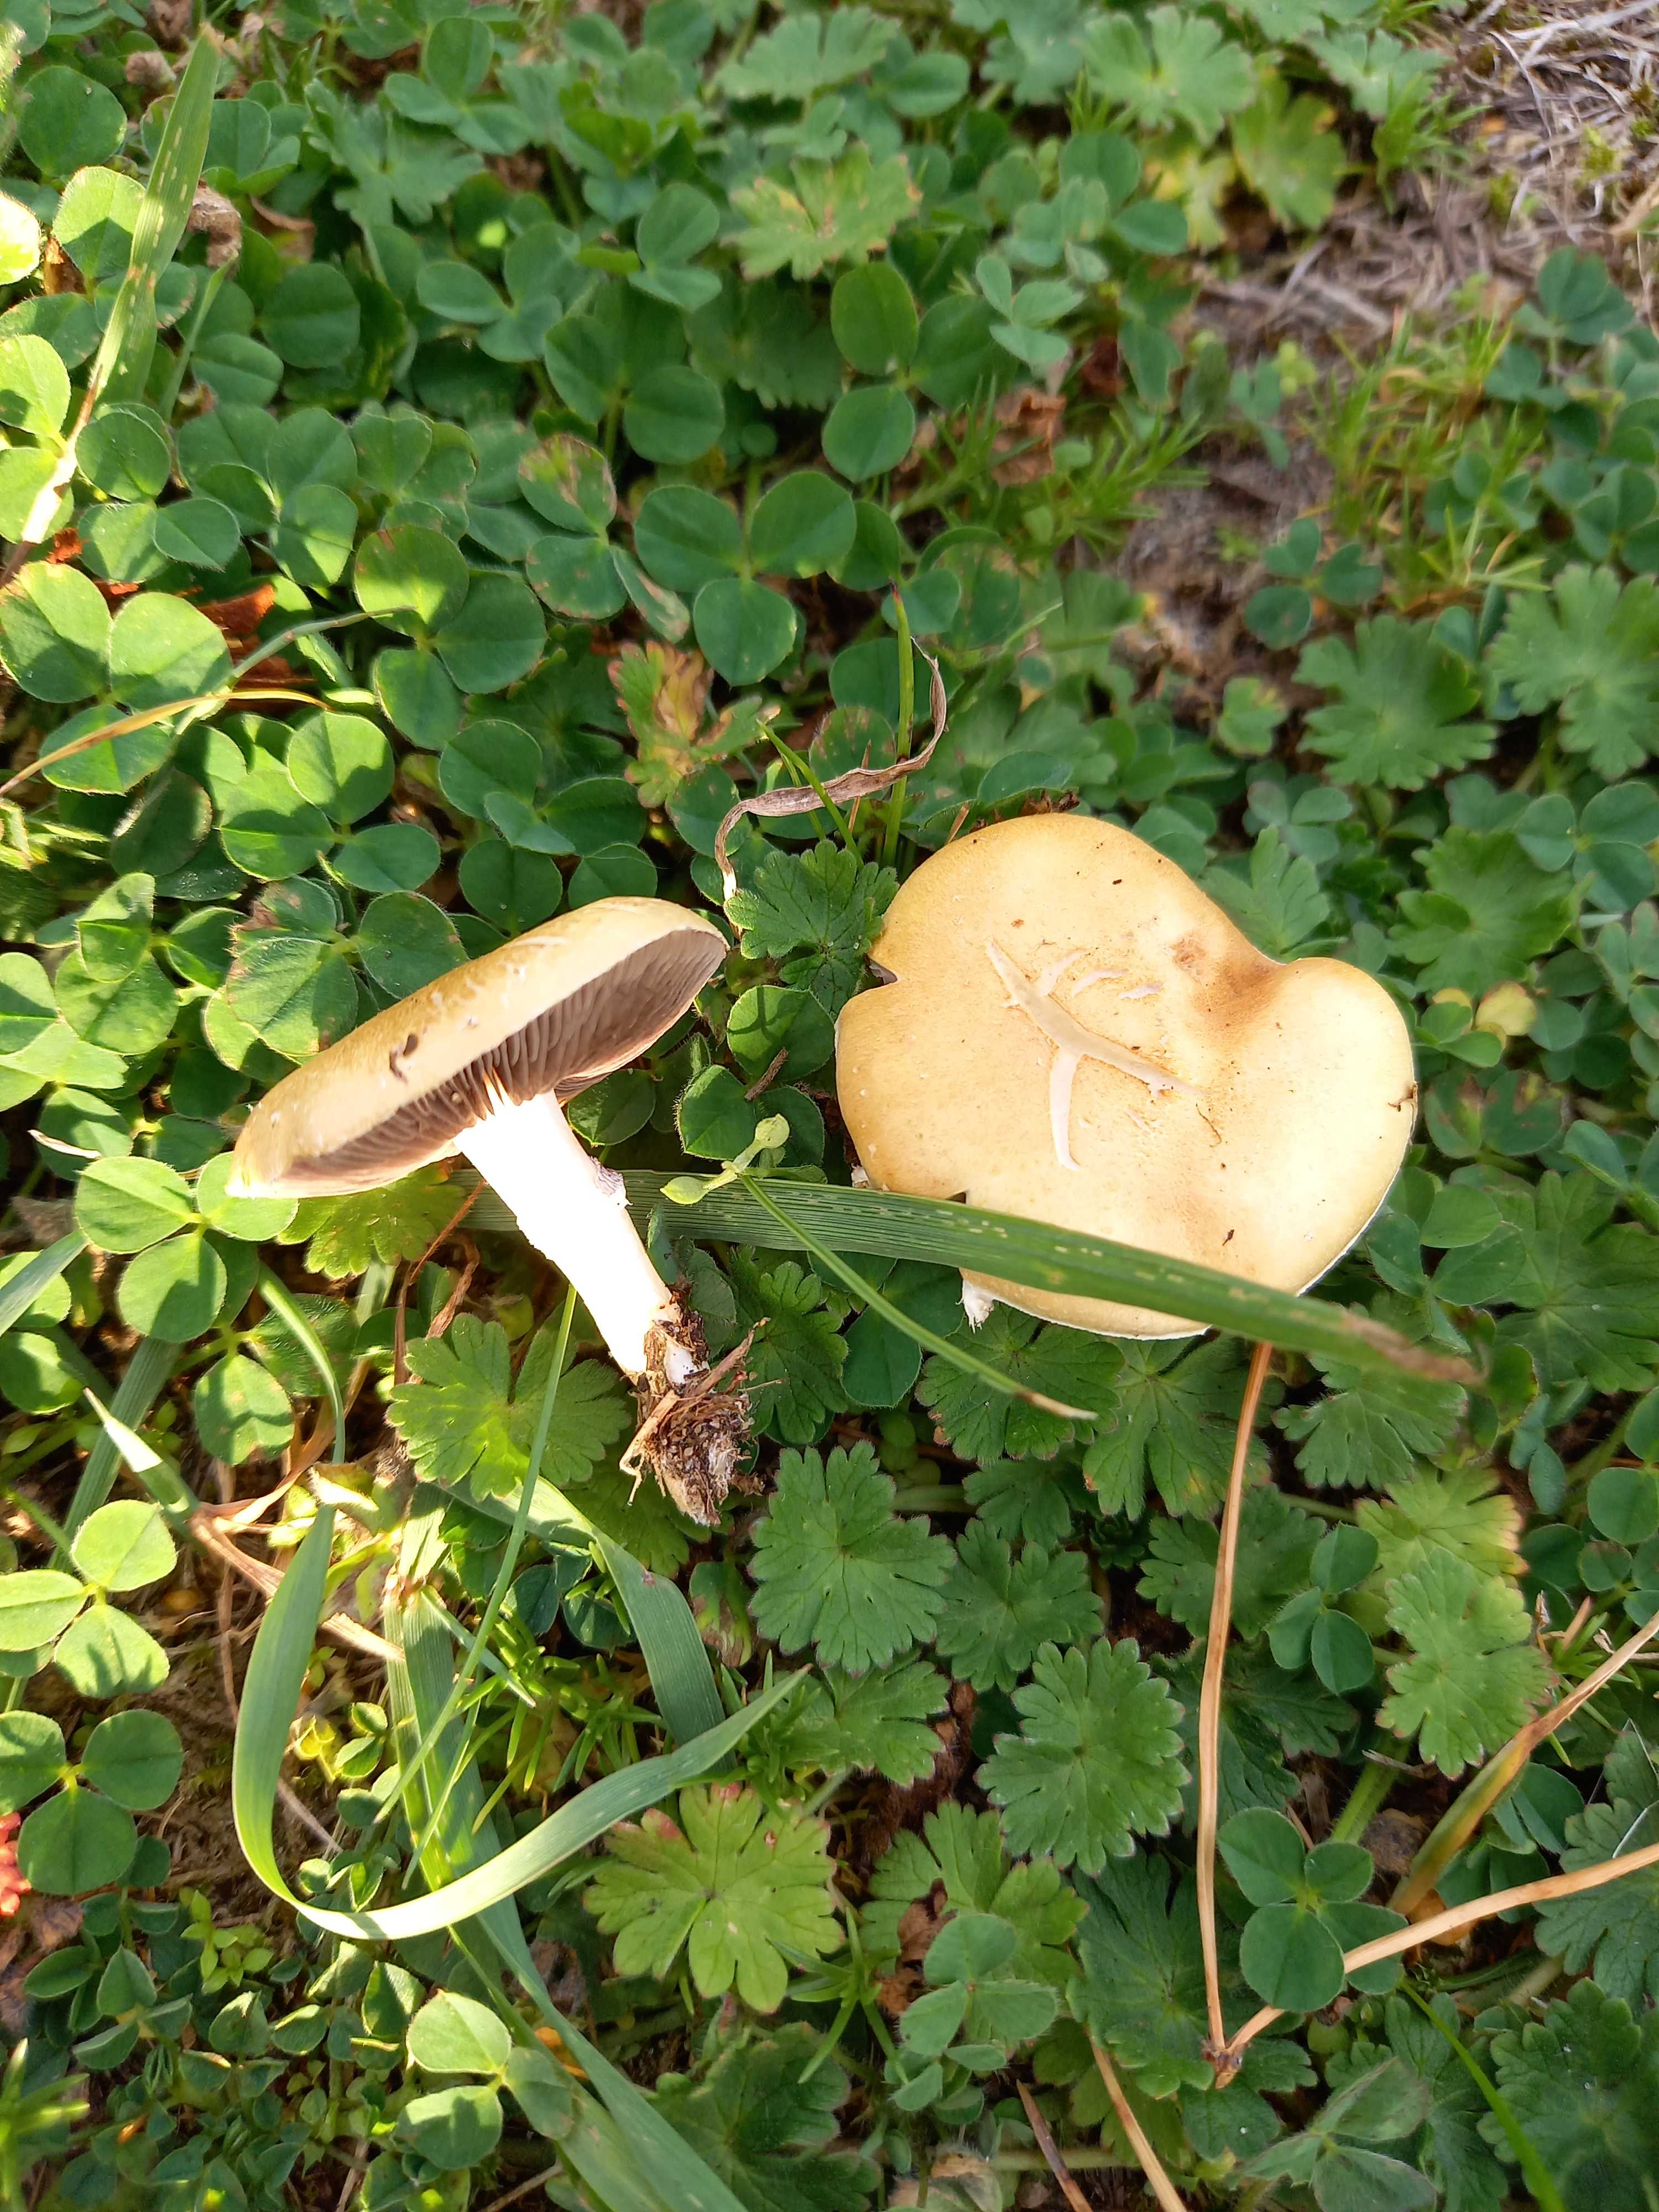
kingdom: Fungi
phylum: Basidiomycota
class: Agaricomycetes
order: Agaricales
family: Hymenogastraceae
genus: Psilocybe
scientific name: Psilocybe coronilla
